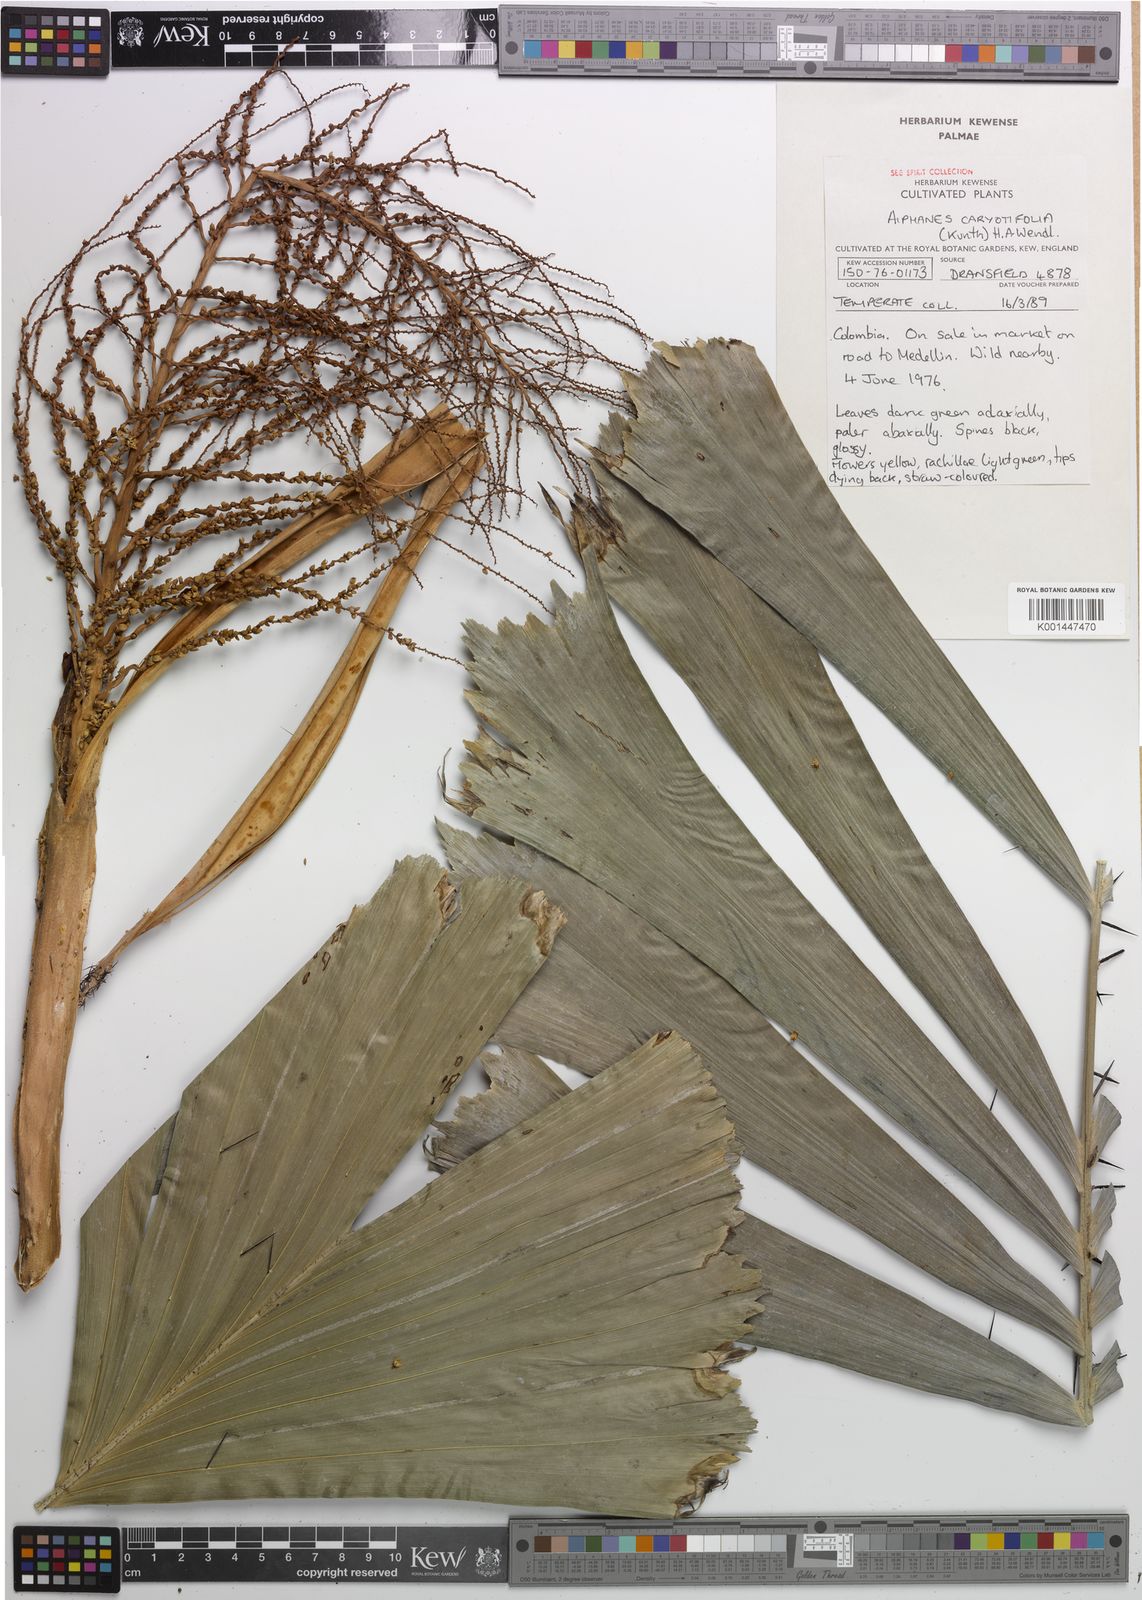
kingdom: Plantae
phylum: Tracheophyta
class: Liliopsida
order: Arecales
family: Arecaceae
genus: Aiphanes
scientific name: Aiphanes horrida
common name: Ruffle palm
